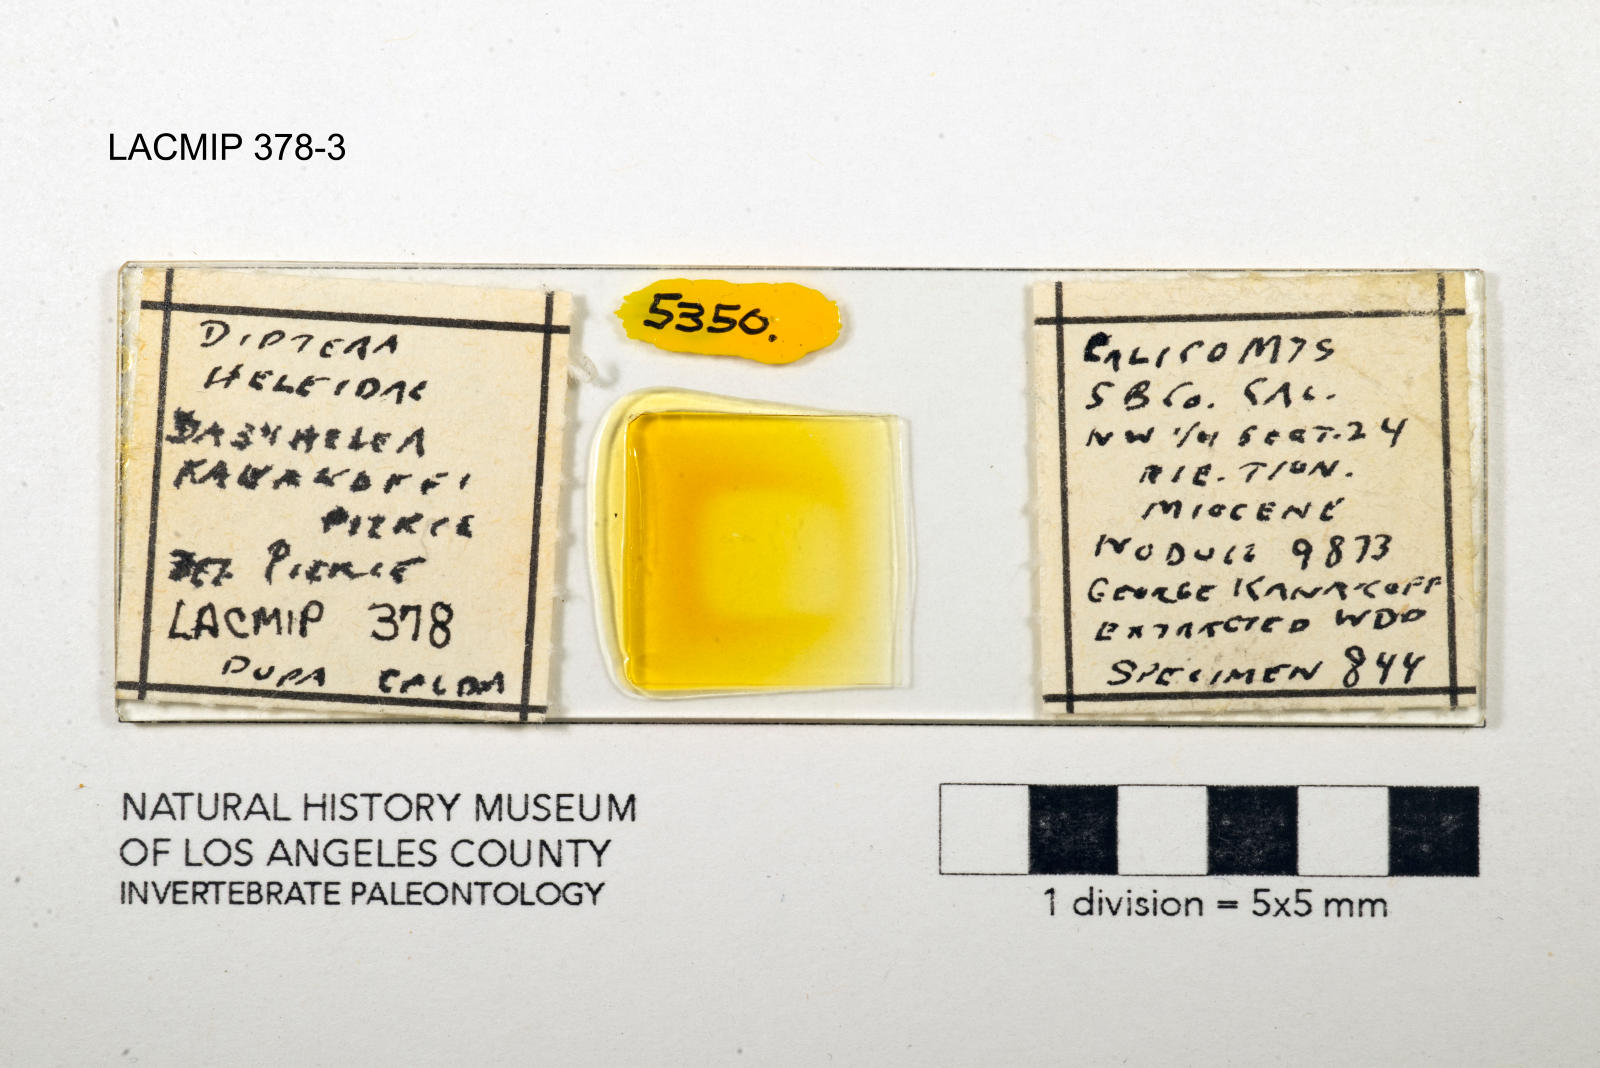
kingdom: Animalia
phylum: Arthropoda
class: Insecta
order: Diptera
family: Ceratopogonidae
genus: Dasyhelea
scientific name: Dasyhelea kanakoffi
